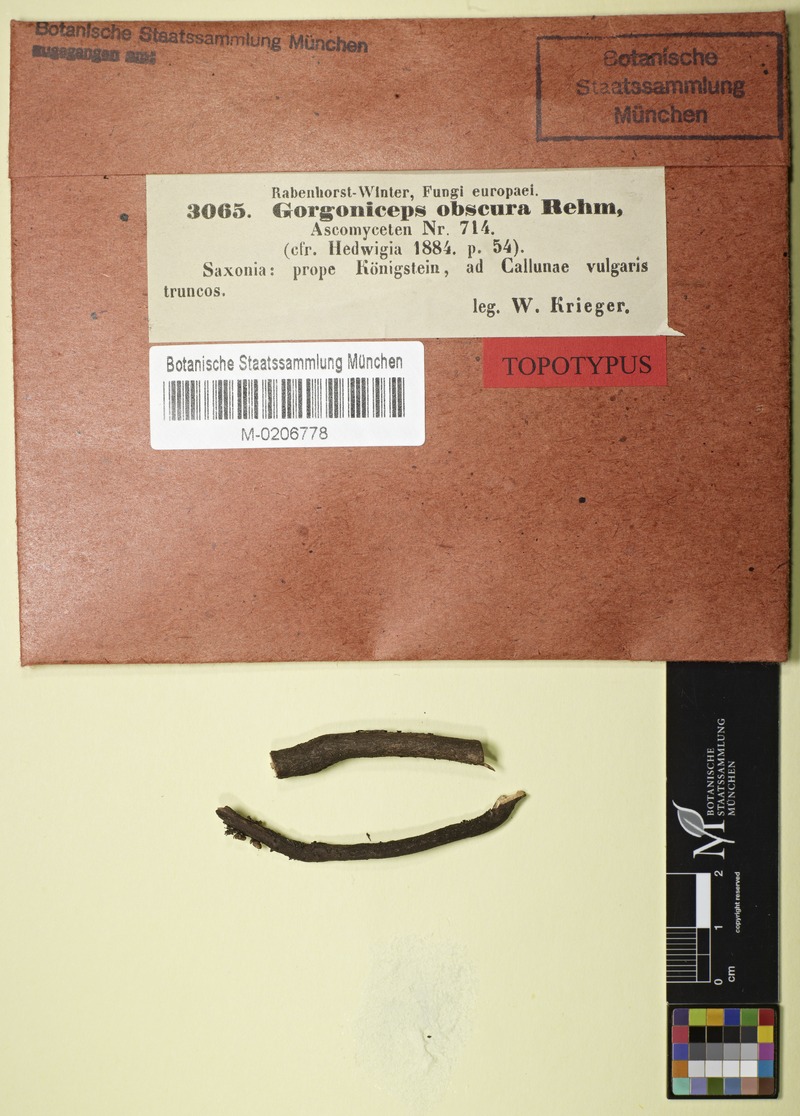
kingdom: Plantae
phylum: Tracheophyta
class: Magnoliopsida
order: Ericales
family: Ericaceae
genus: Calluna
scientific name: Calluna vulgaris
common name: Heather
